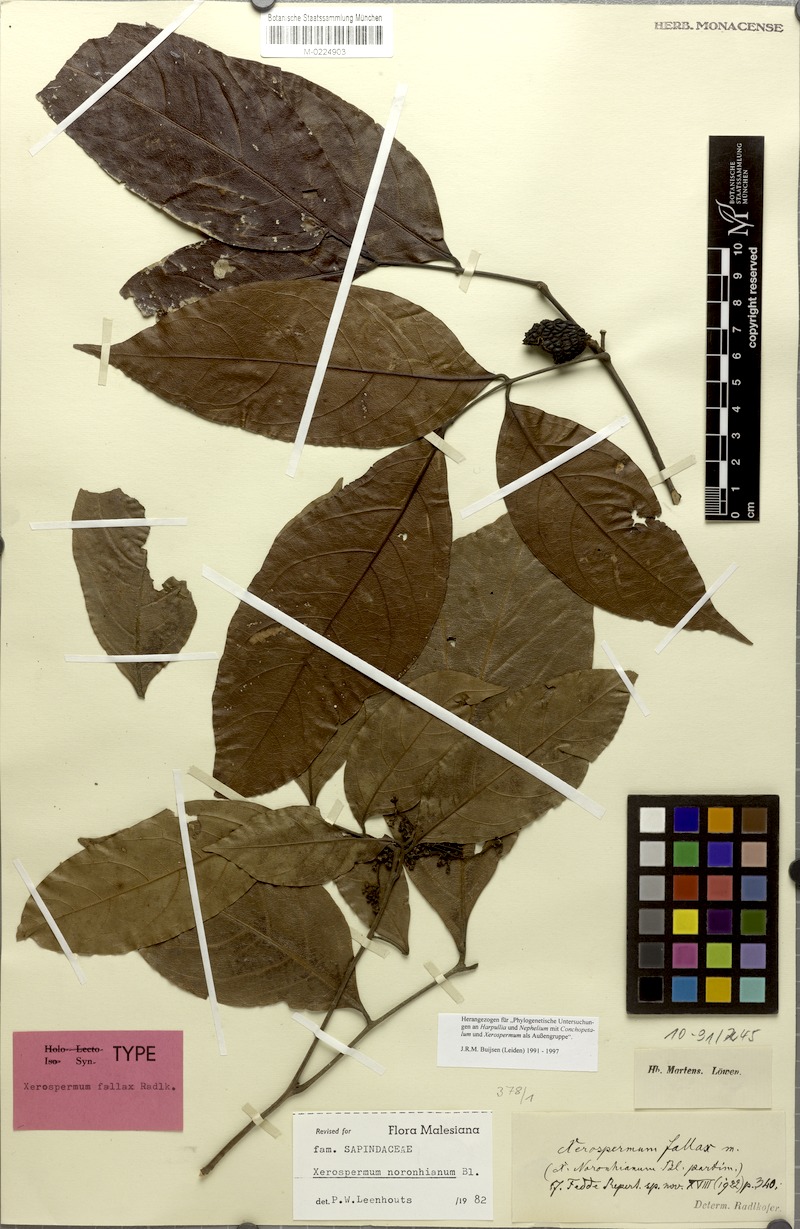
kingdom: Plantae
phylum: Tracheophyta
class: Magnoliopsida
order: Sapindales
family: Sapindaceae
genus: Xerospermum
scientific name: Xerospermum noronhianum
